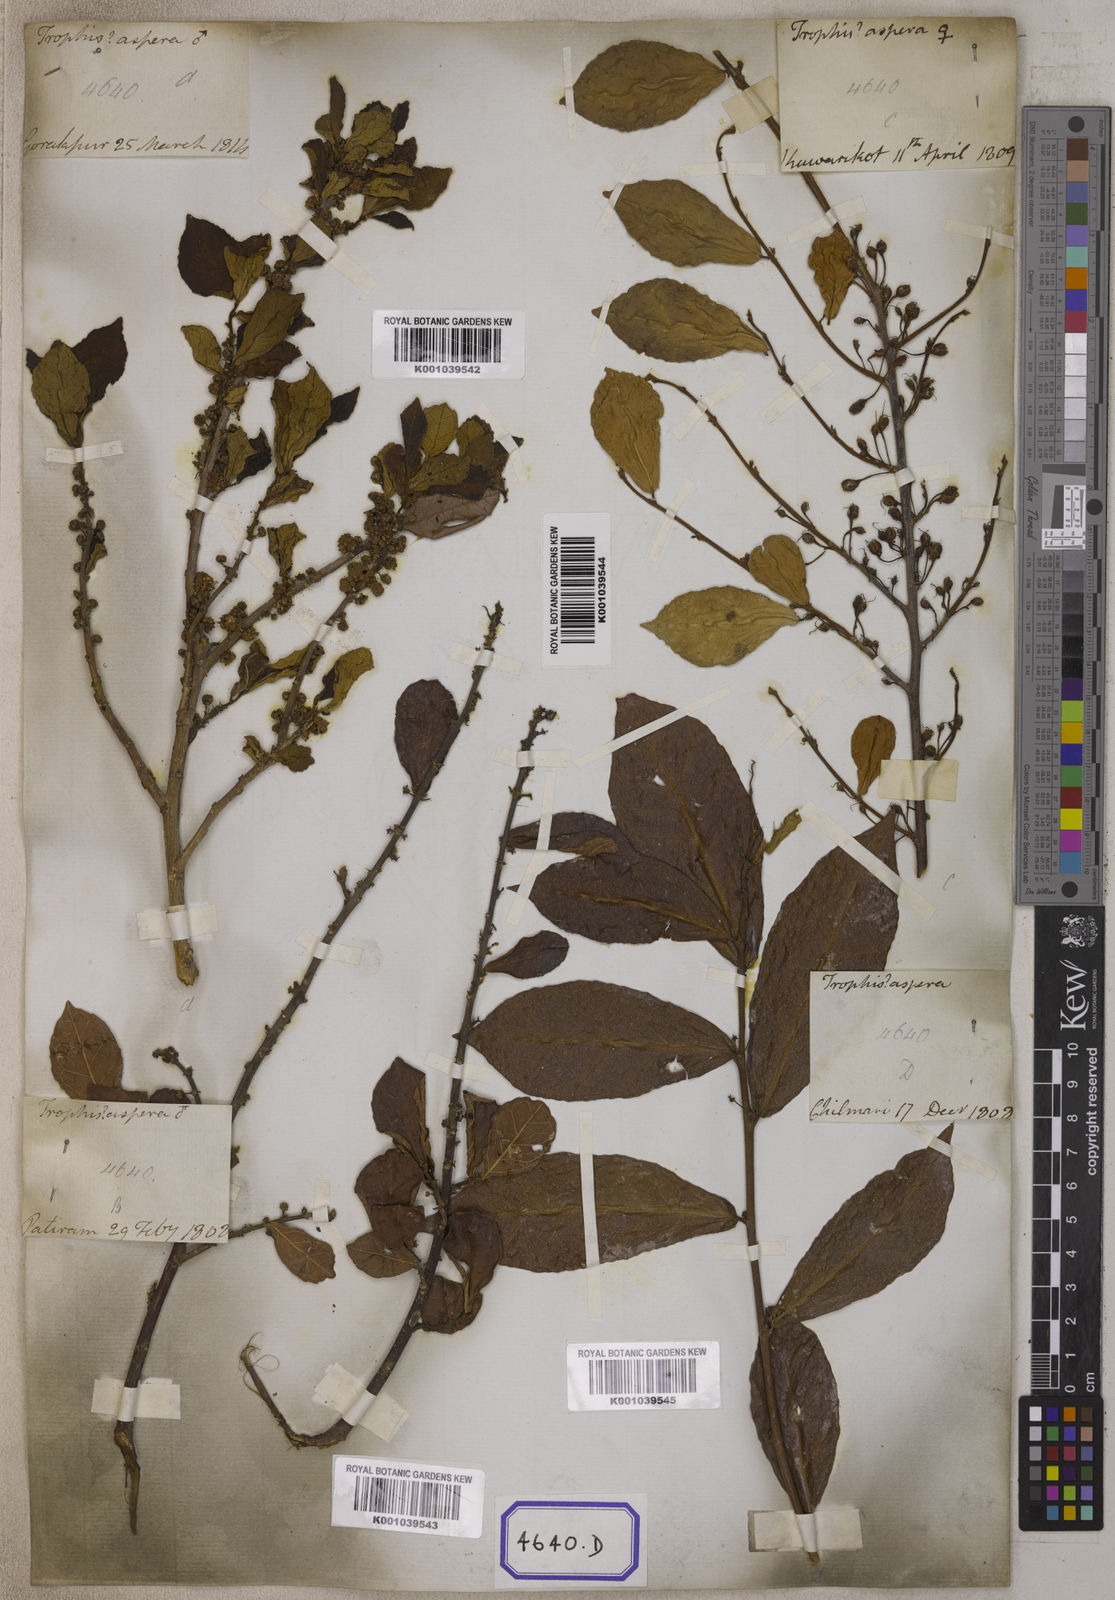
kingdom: Plantae
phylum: Tracheophyta
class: Magnoliopsida
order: Rosales
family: Moraceae
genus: Streblus
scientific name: Streblus asper
